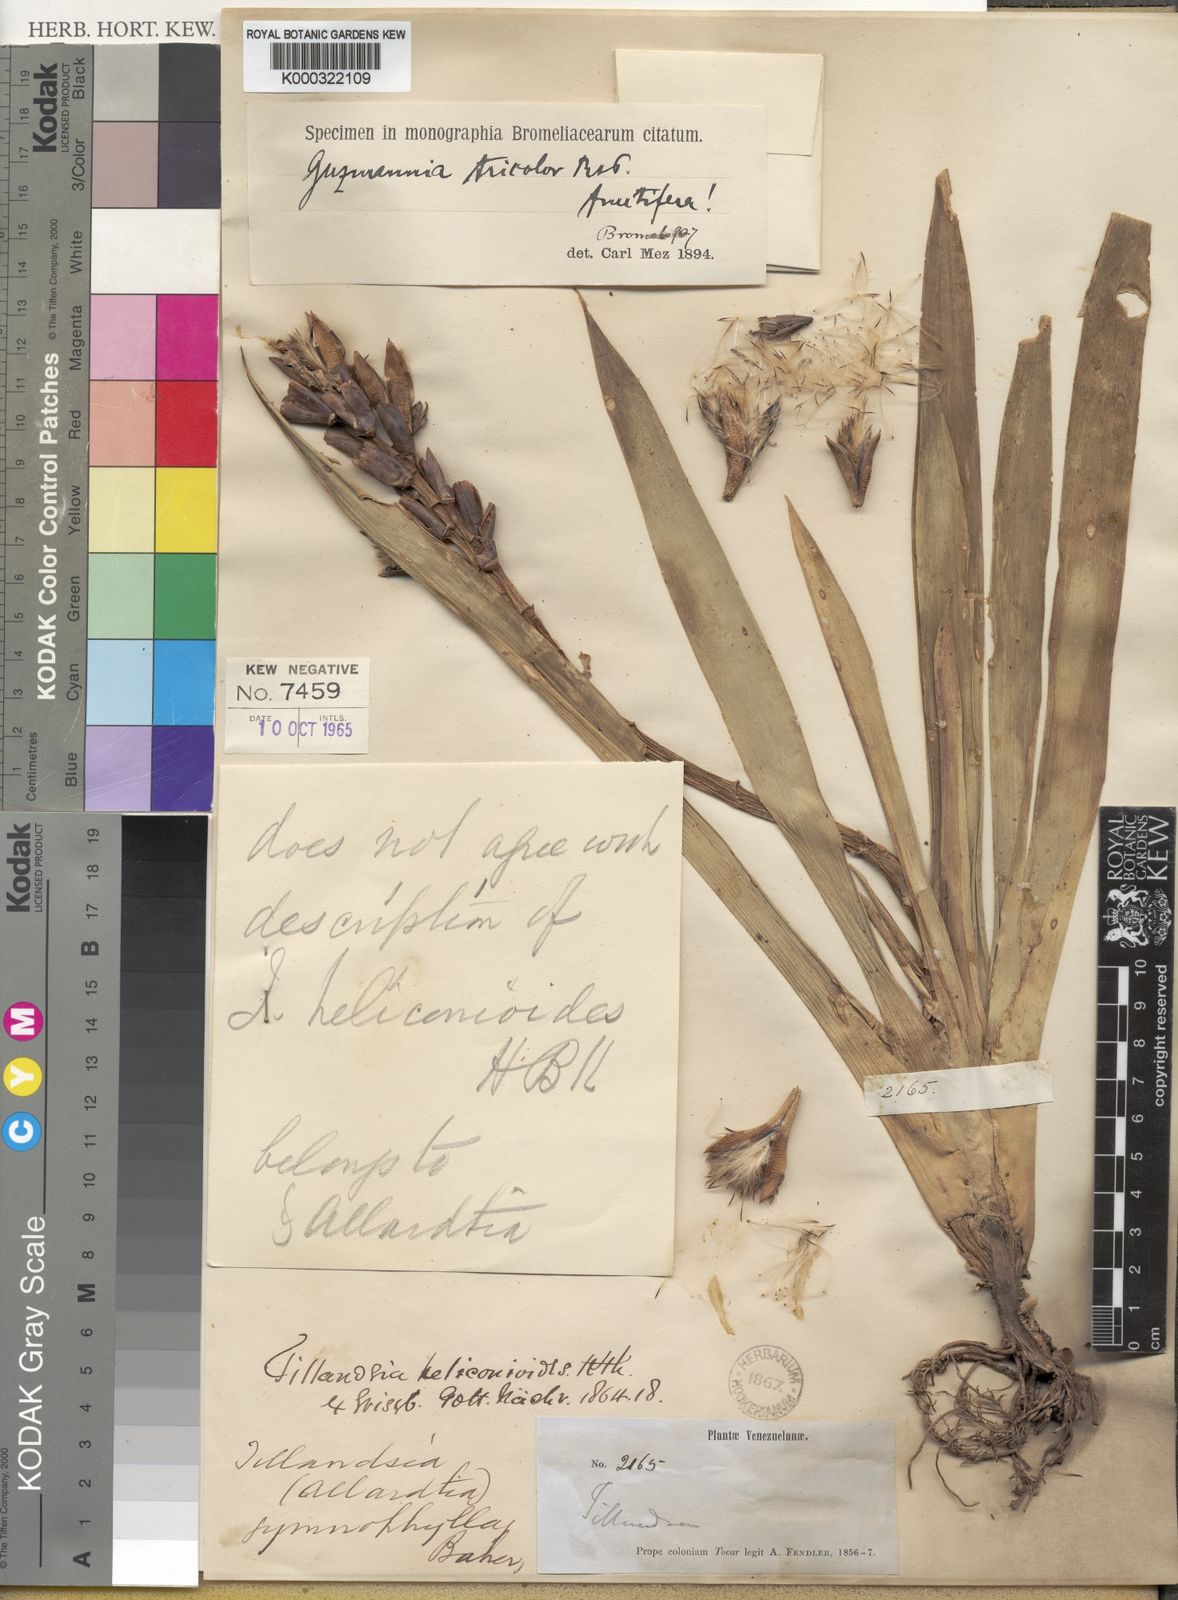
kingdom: Plantae
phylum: Tracheophyta
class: Liliopsida
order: Poales
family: Bromeliaceae
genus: Guzmania
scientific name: Guzmania
